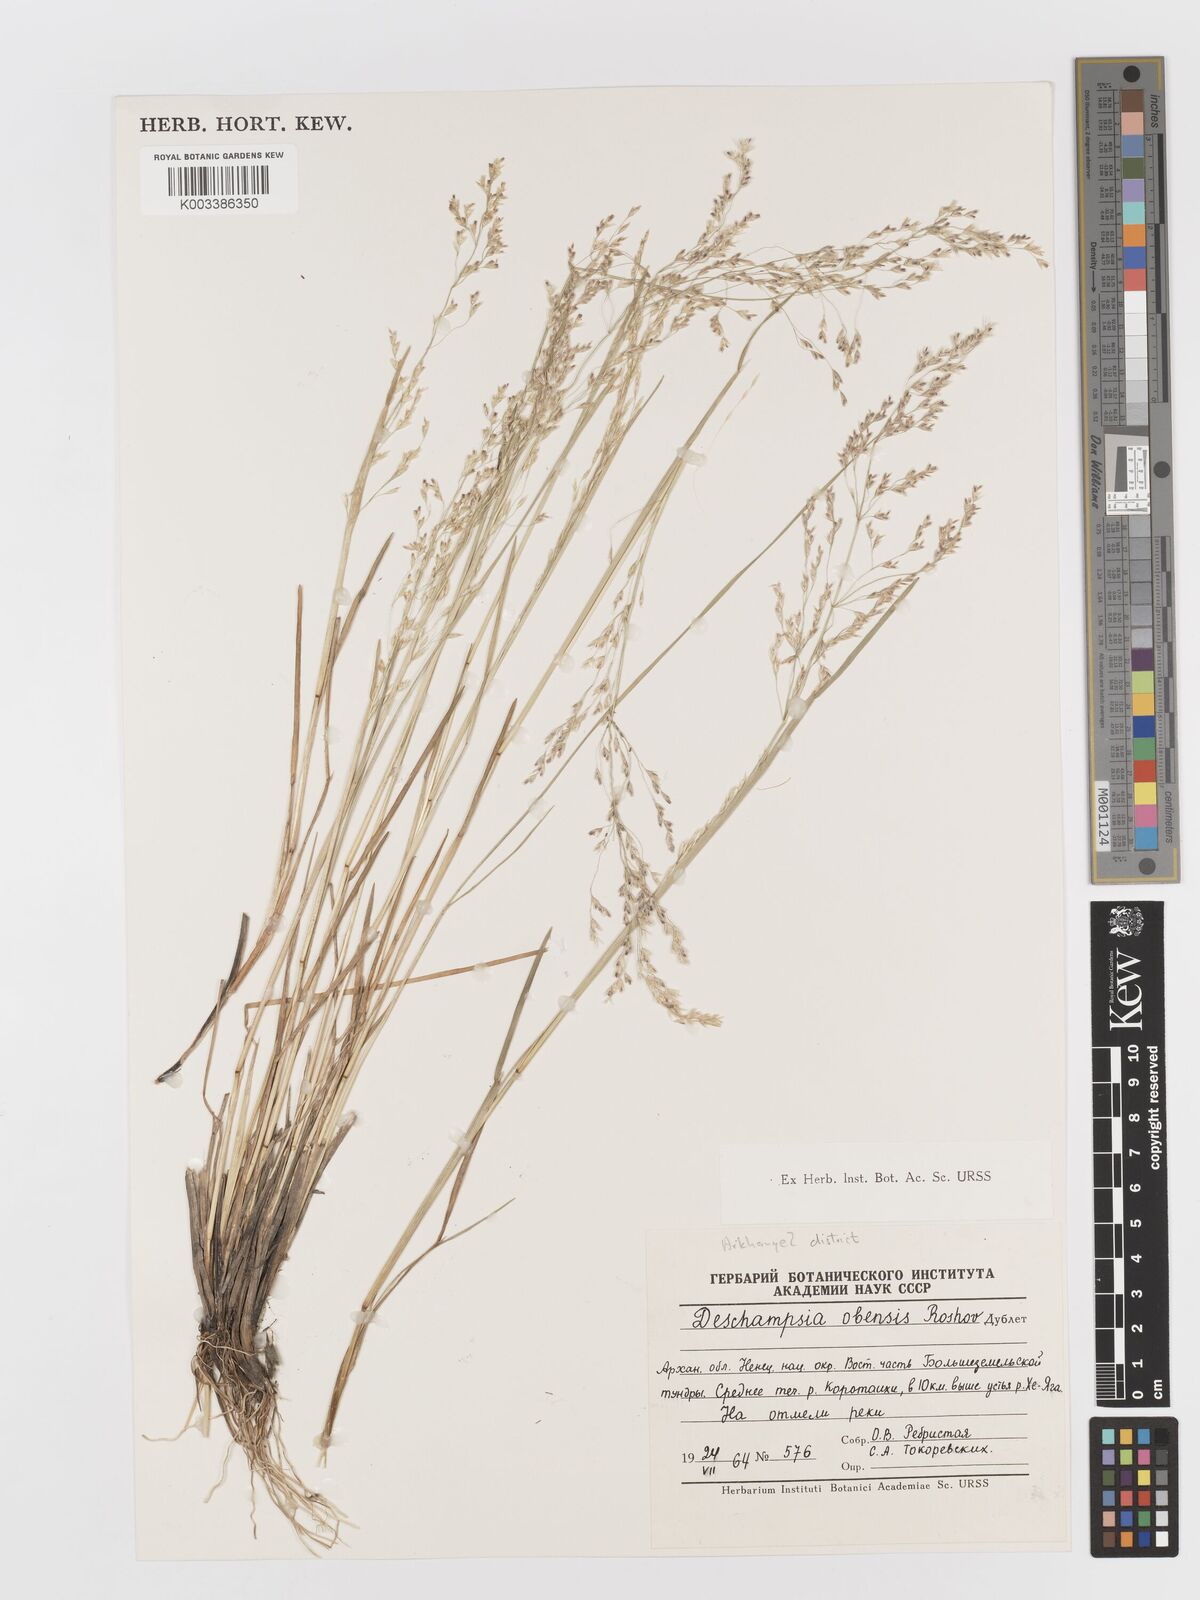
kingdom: Plantae
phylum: Tracheophyta
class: Liliopsida
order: Poales
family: Poaceae
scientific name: Poaceae
